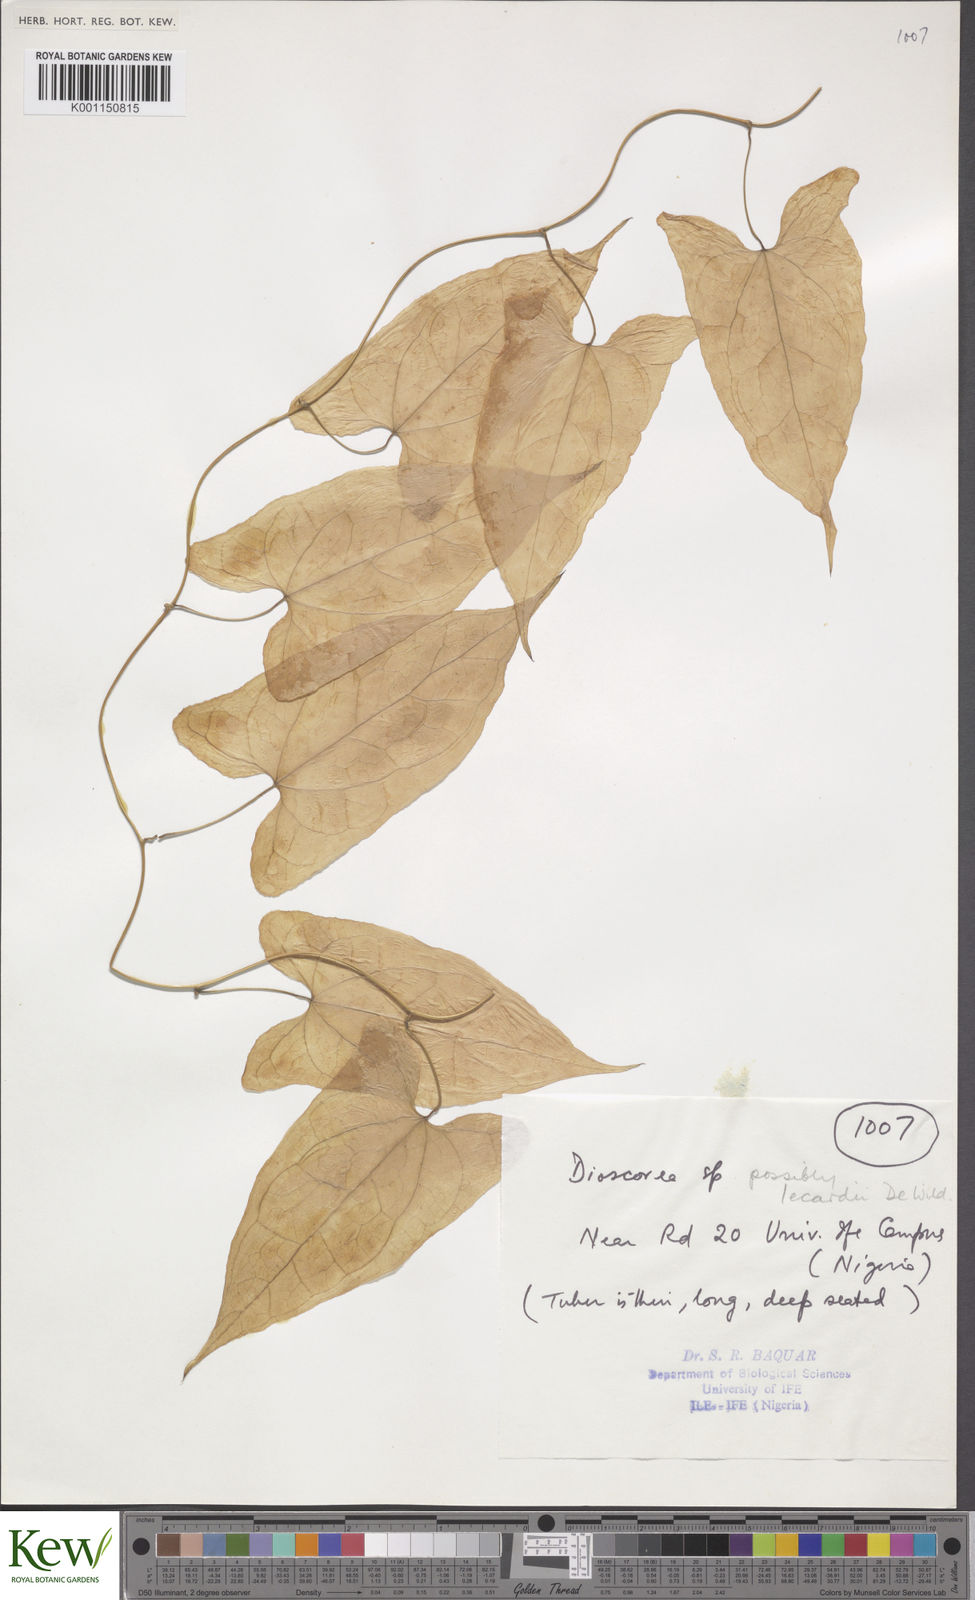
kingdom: Plantae
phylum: Tracheophyta
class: Liliopsida
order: Dioscoreales
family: Dioscoreaceae
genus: Dioscorea
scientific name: Dioscorea sagittifolia
